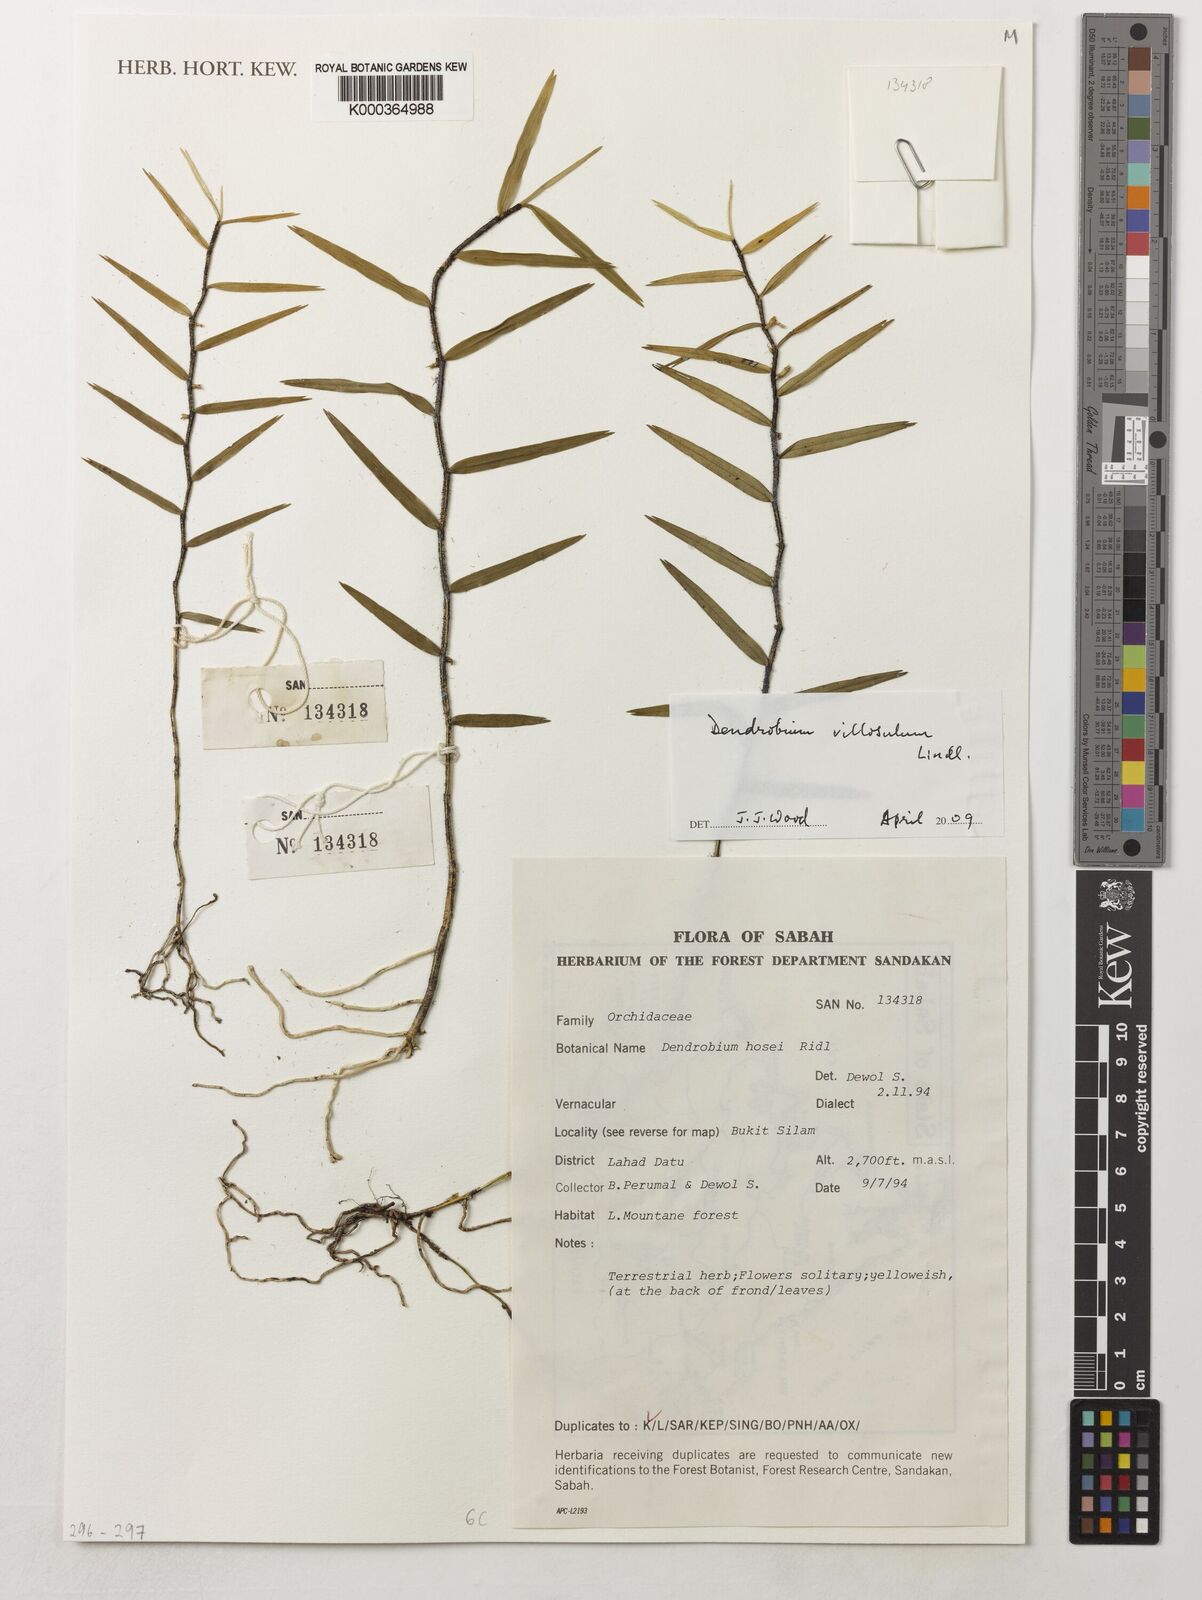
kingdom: Plantae
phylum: Tracheophyta
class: Liliopsida
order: Asparagales
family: Orchidaceae
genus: Dendrobium
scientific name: Dendrobium villosulum
